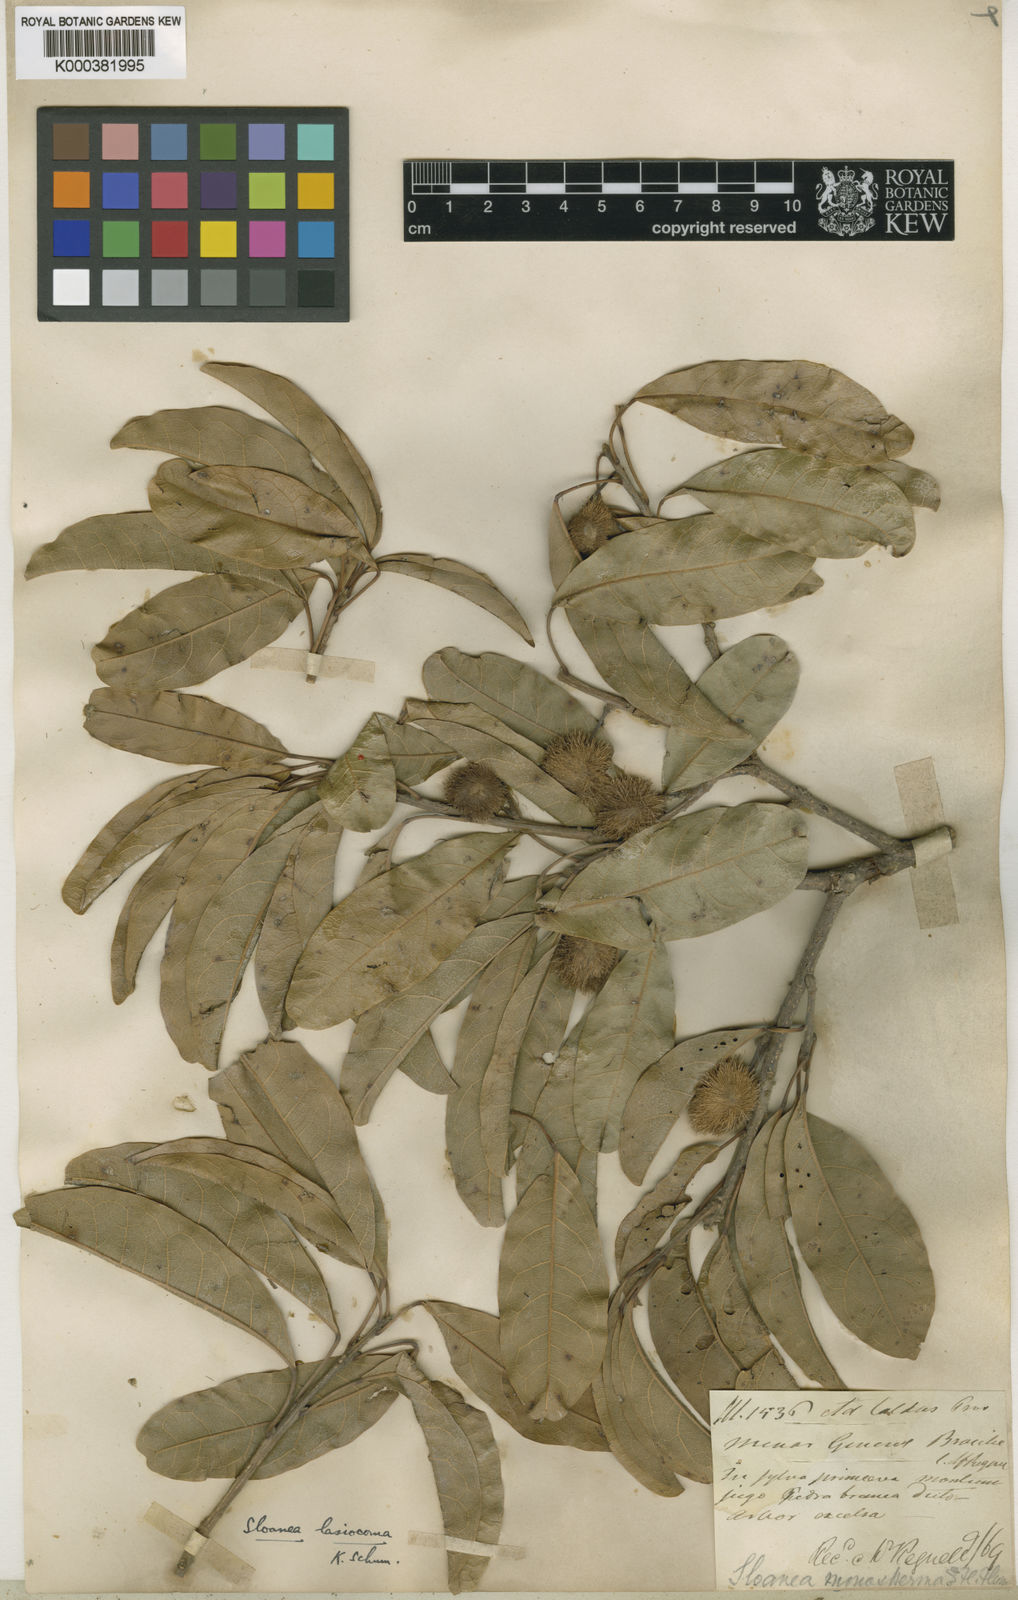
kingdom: Plantae
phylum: Tracheophyta
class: Magnoliopsida
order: Oxalidales
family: Elaeocarpaceae
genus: Sloanea
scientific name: Sloanea hirsuta
